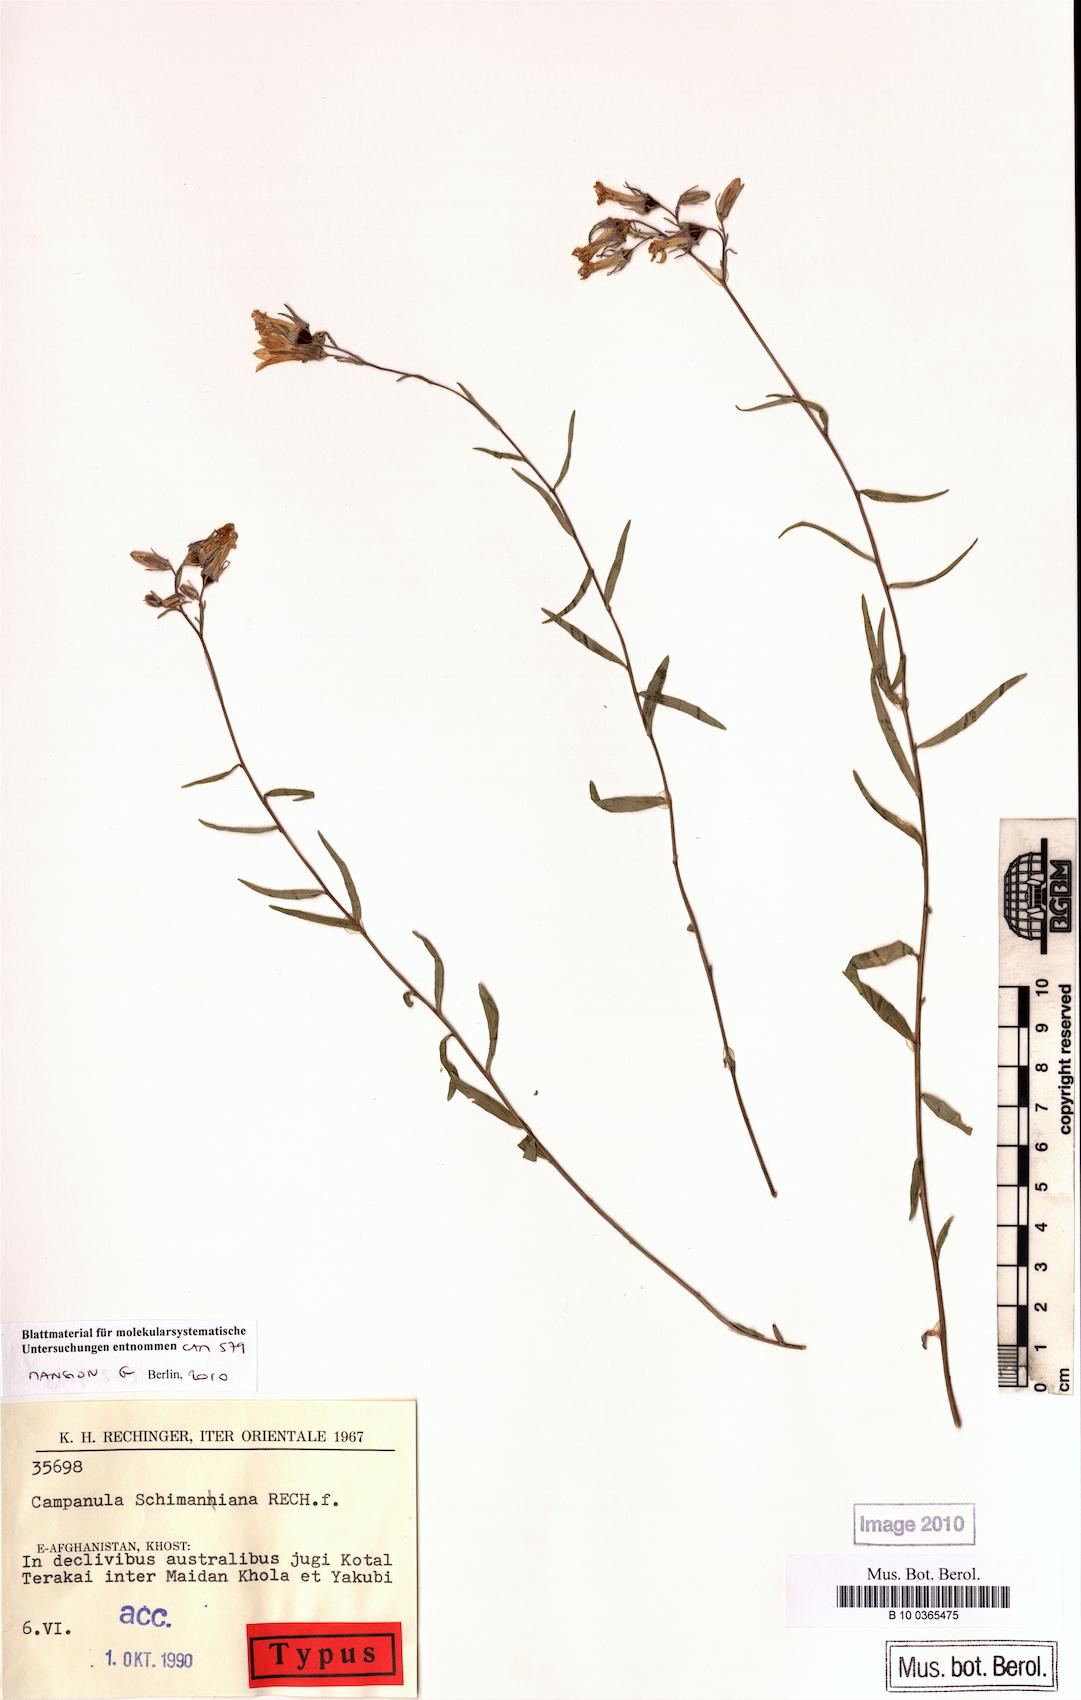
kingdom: Plantae
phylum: Tracheophyta
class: Magnoliopsida
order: Asterales
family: Campanulaceae
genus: Campanula
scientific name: Campanula schimaniana
